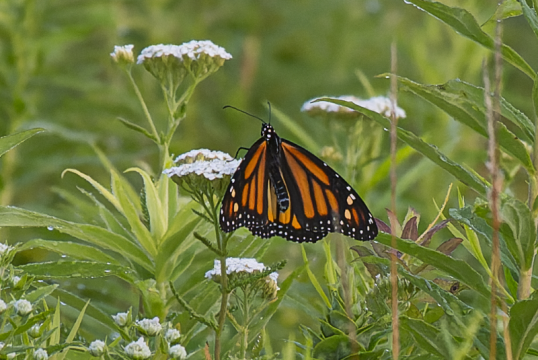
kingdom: Animalia
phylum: Arthropoda
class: Insecta
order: Lepidoptera
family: Nymphalidae
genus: Danaus
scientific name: Danaus plexippus
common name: Monarch
